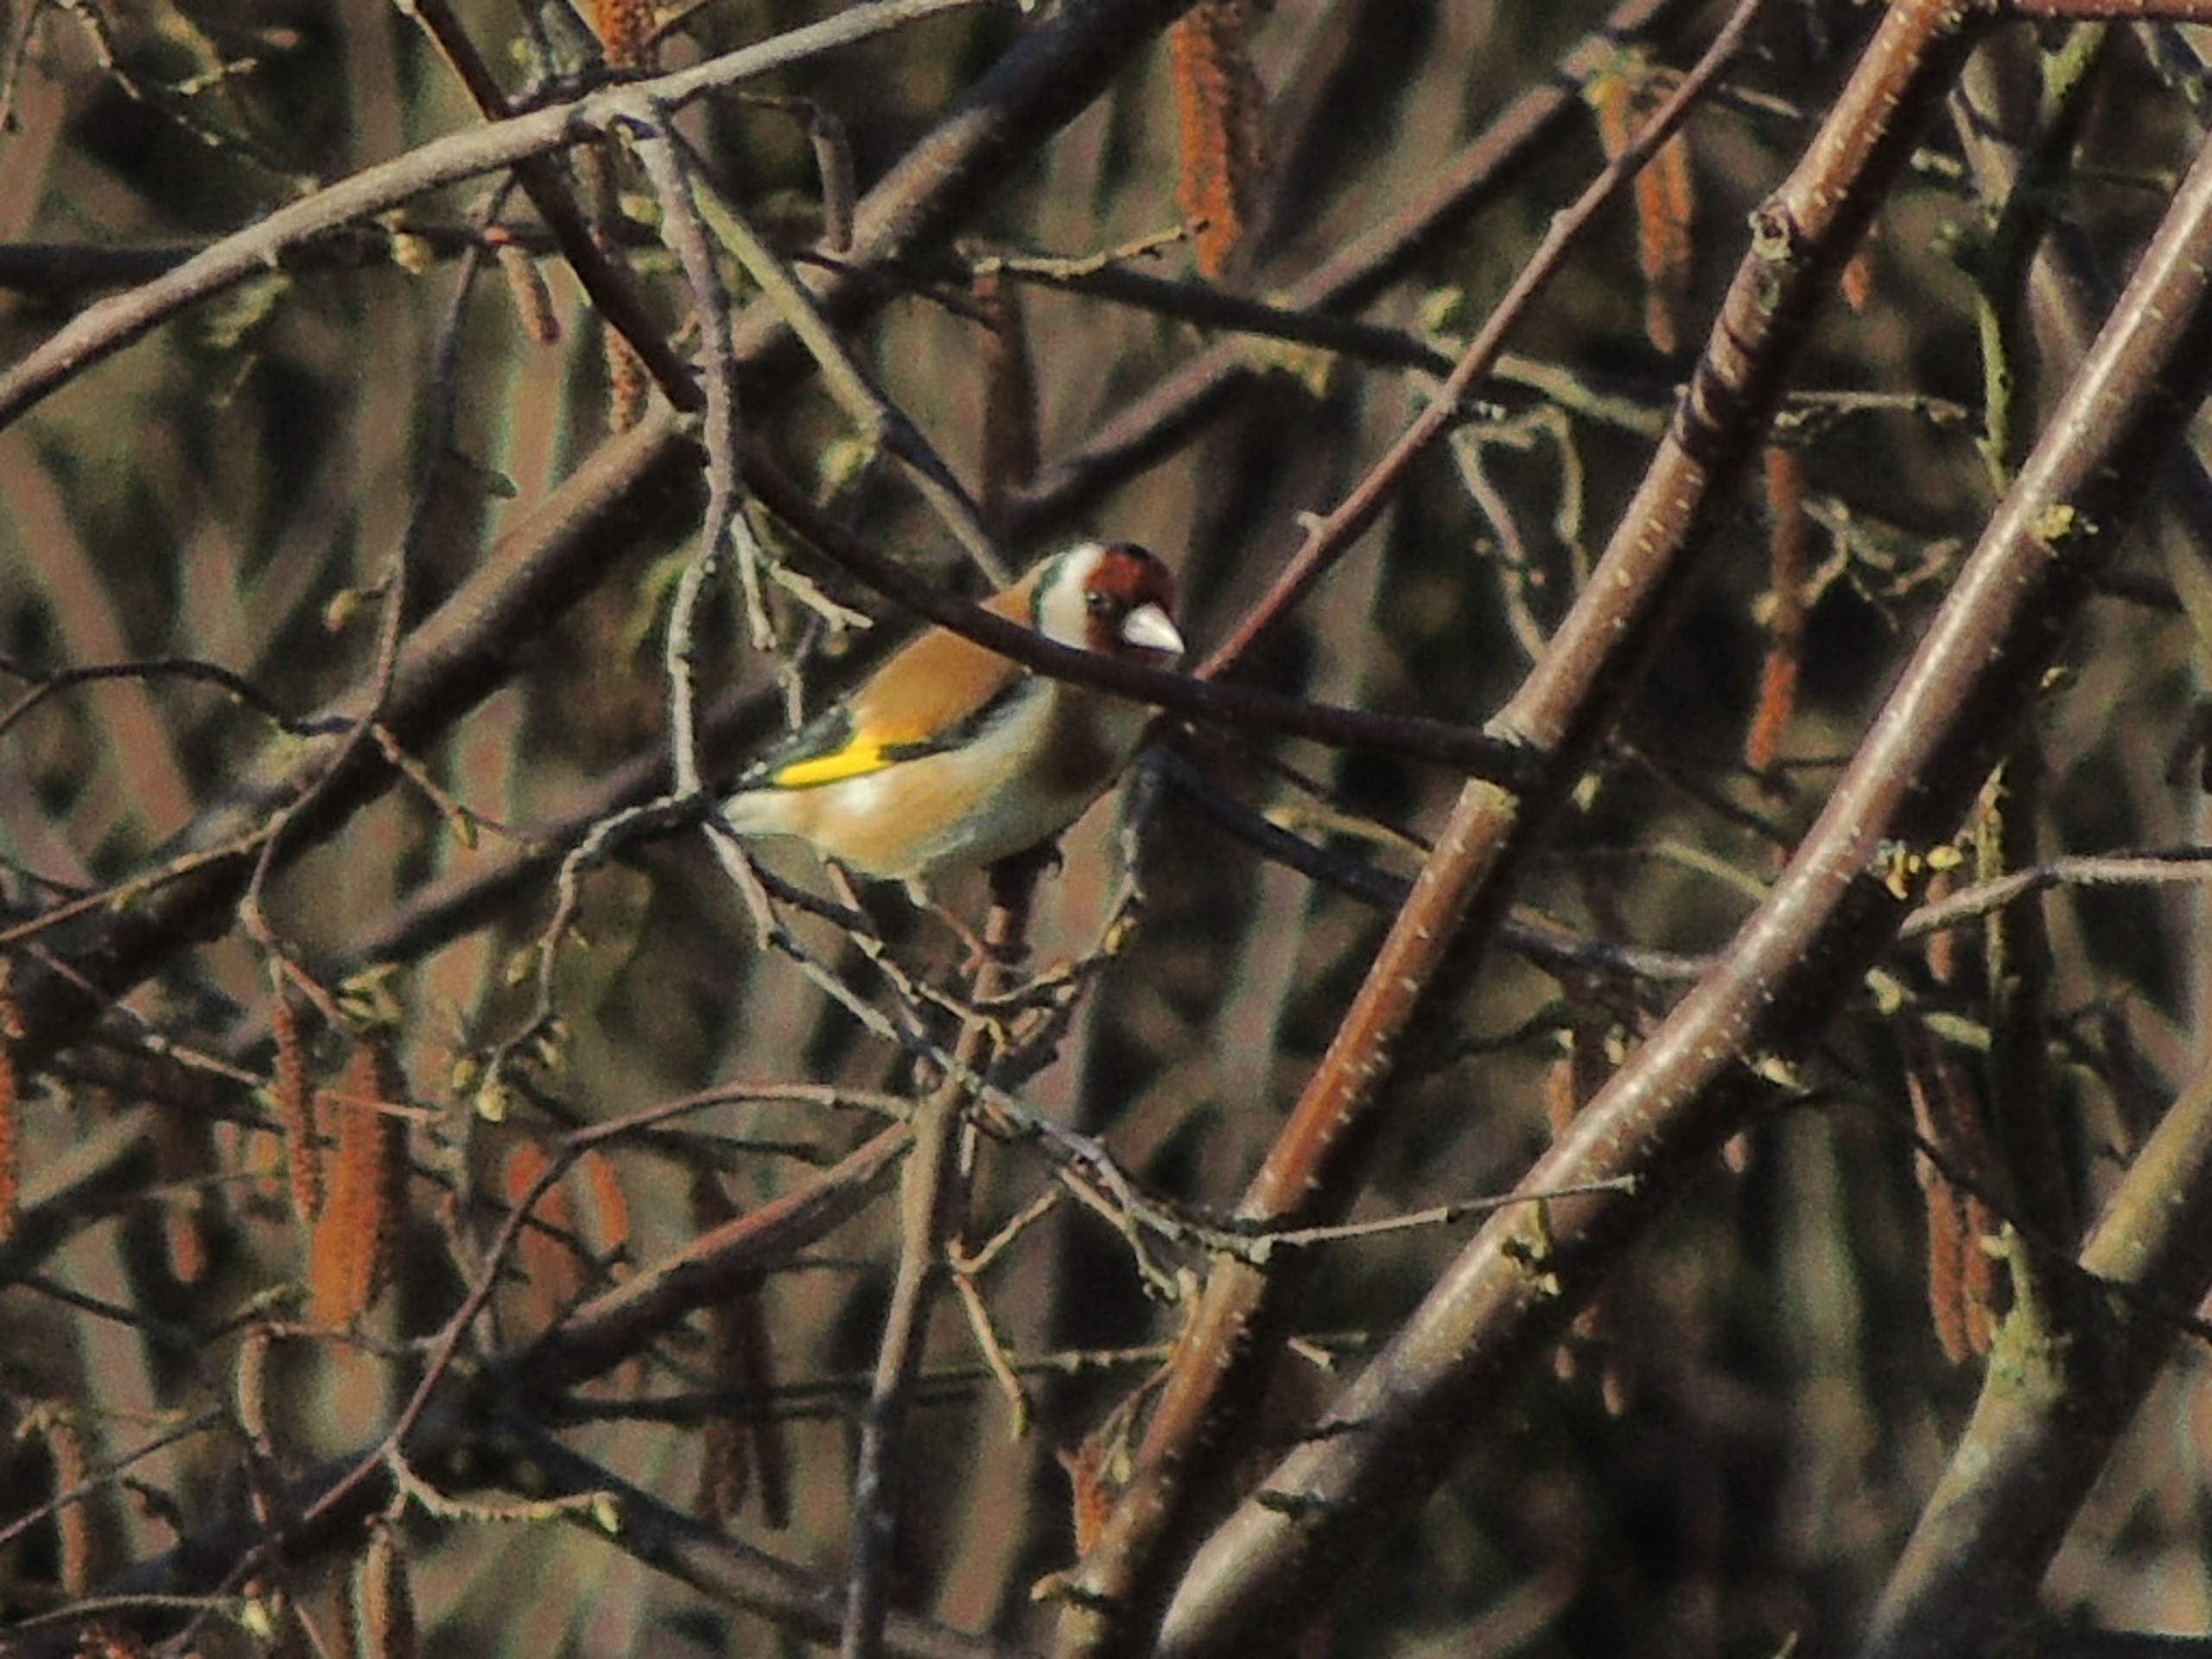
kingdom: Animalia
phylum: Chordata
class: Aves
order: Passeriformes
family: Fringillidae
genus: Carduelis
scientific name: Carduelis carduelis
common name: Stillits
